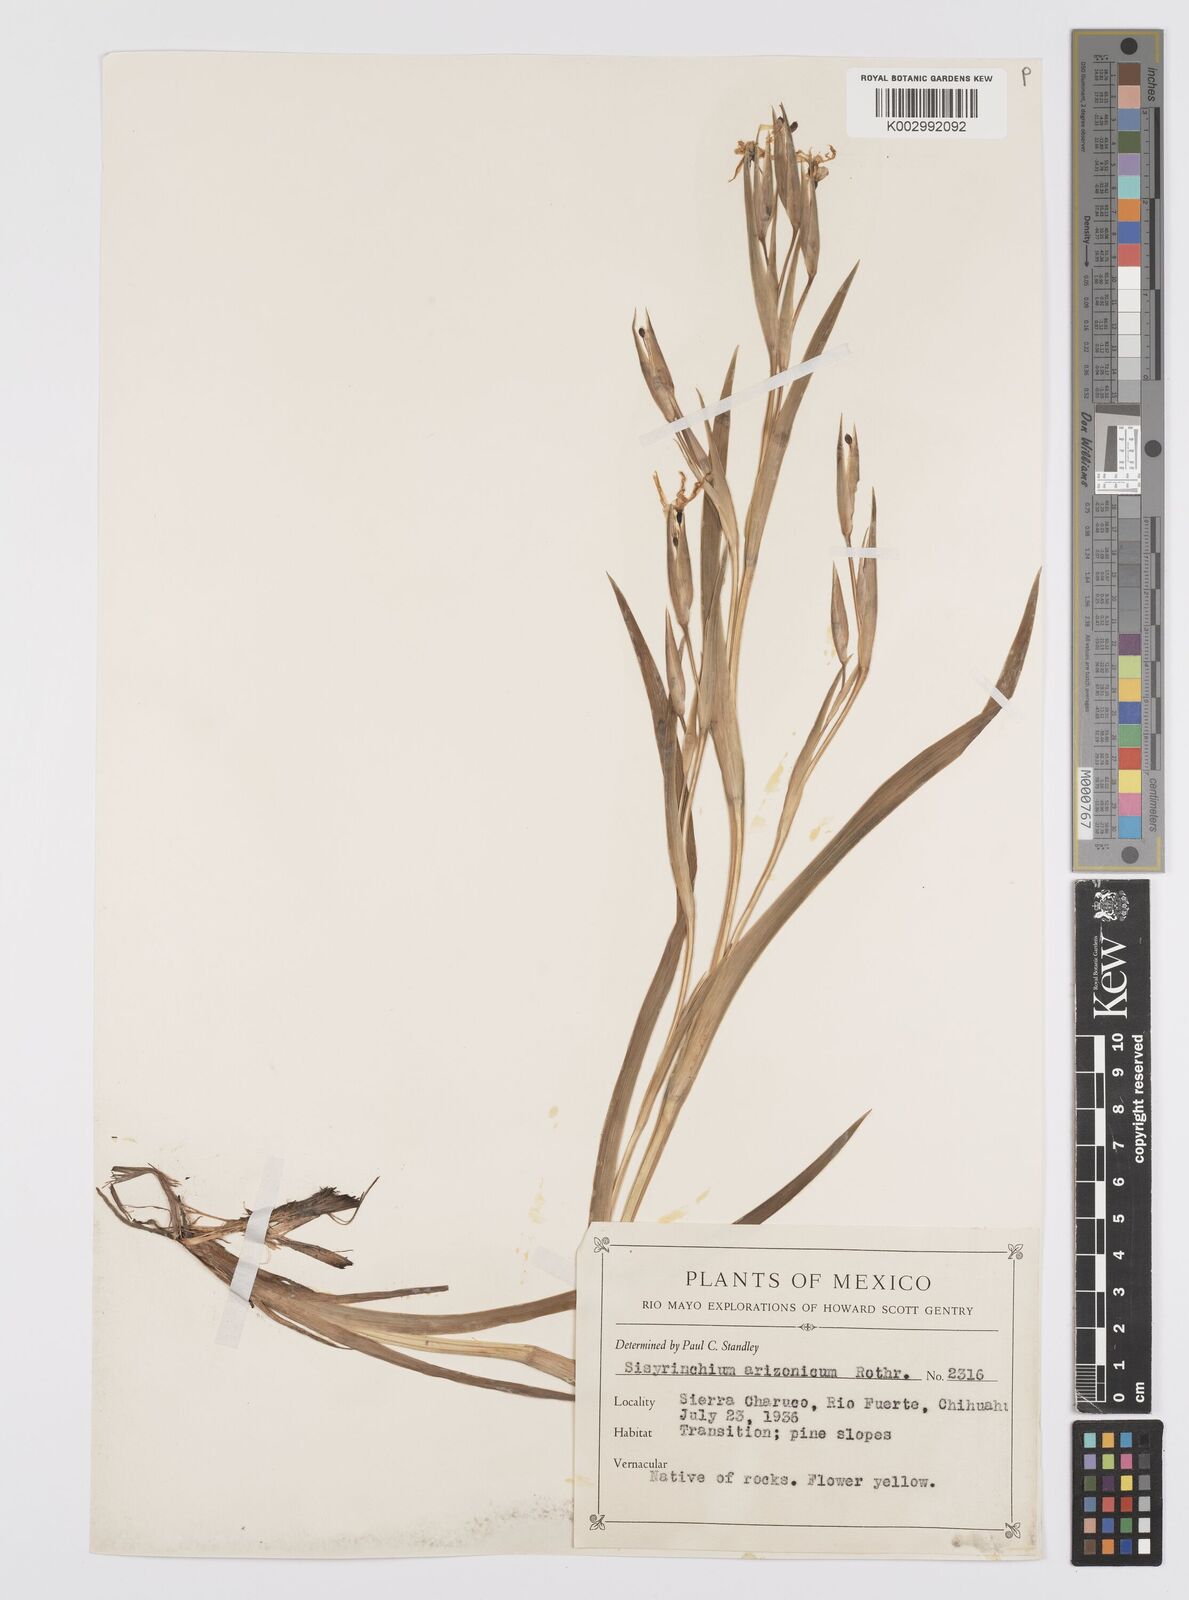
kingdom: Plantae
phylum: Tracheophyta
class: Liliopsida
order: Asparagales
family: Iridaceae
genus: Sisyrinchium
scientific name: Sisyrinchium arizonicum
